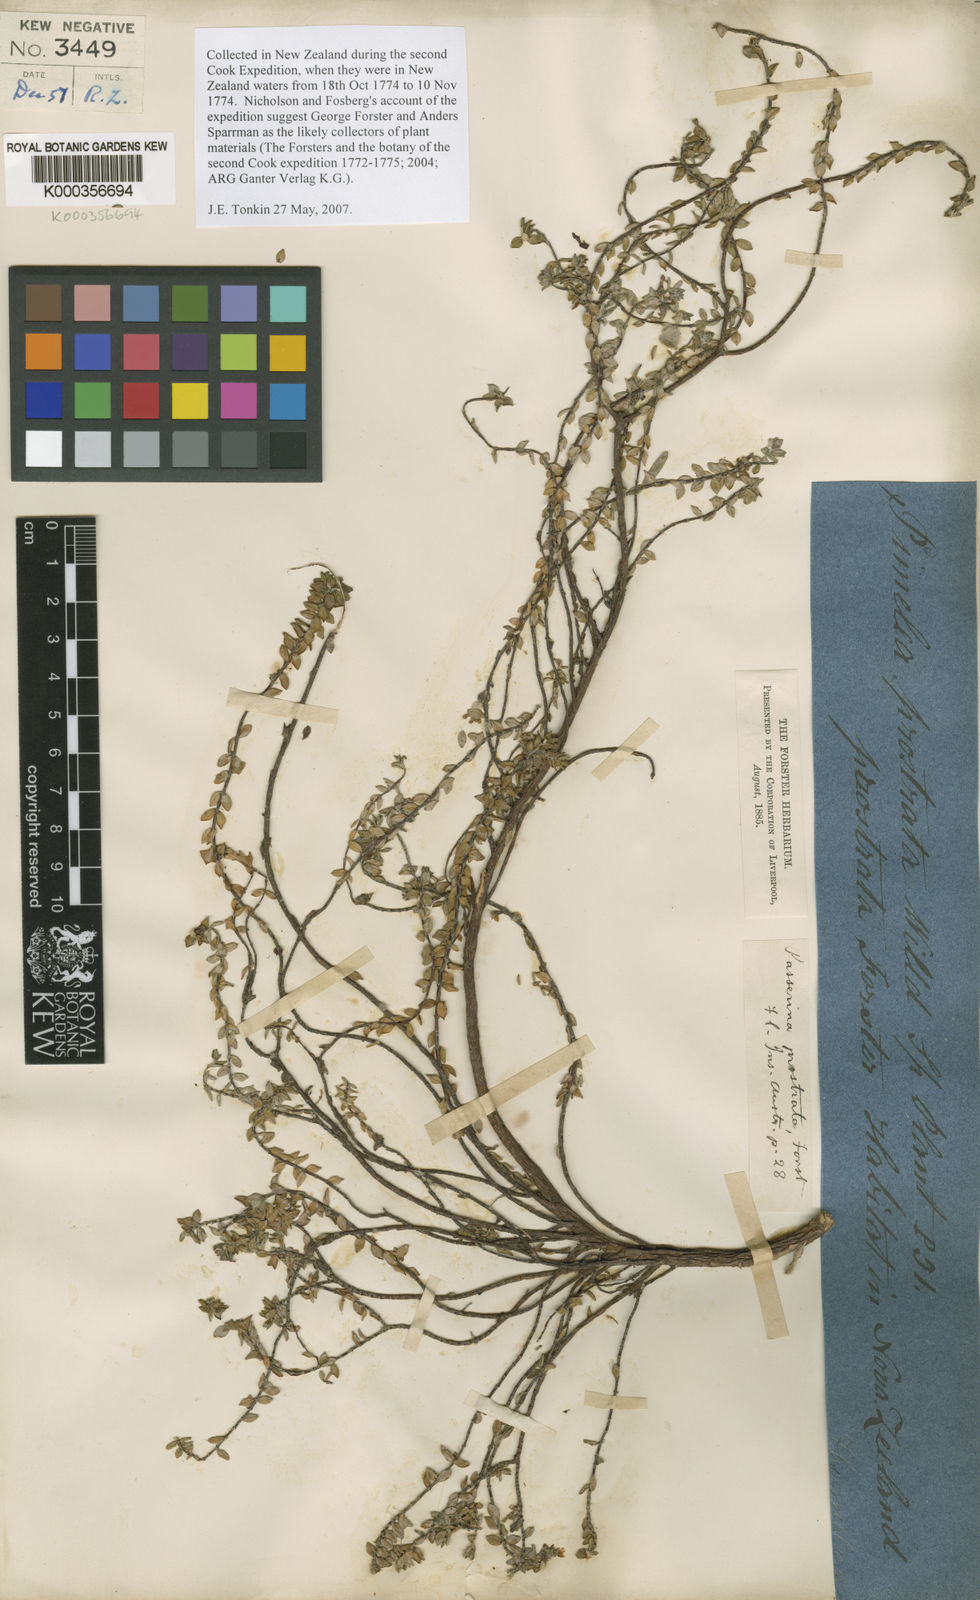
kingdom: Plantae
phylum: Tracheophyta
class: Magnoliopsida
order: Malvales
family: Thymelaeaceae
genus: Pimelea
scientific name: Pimelea
